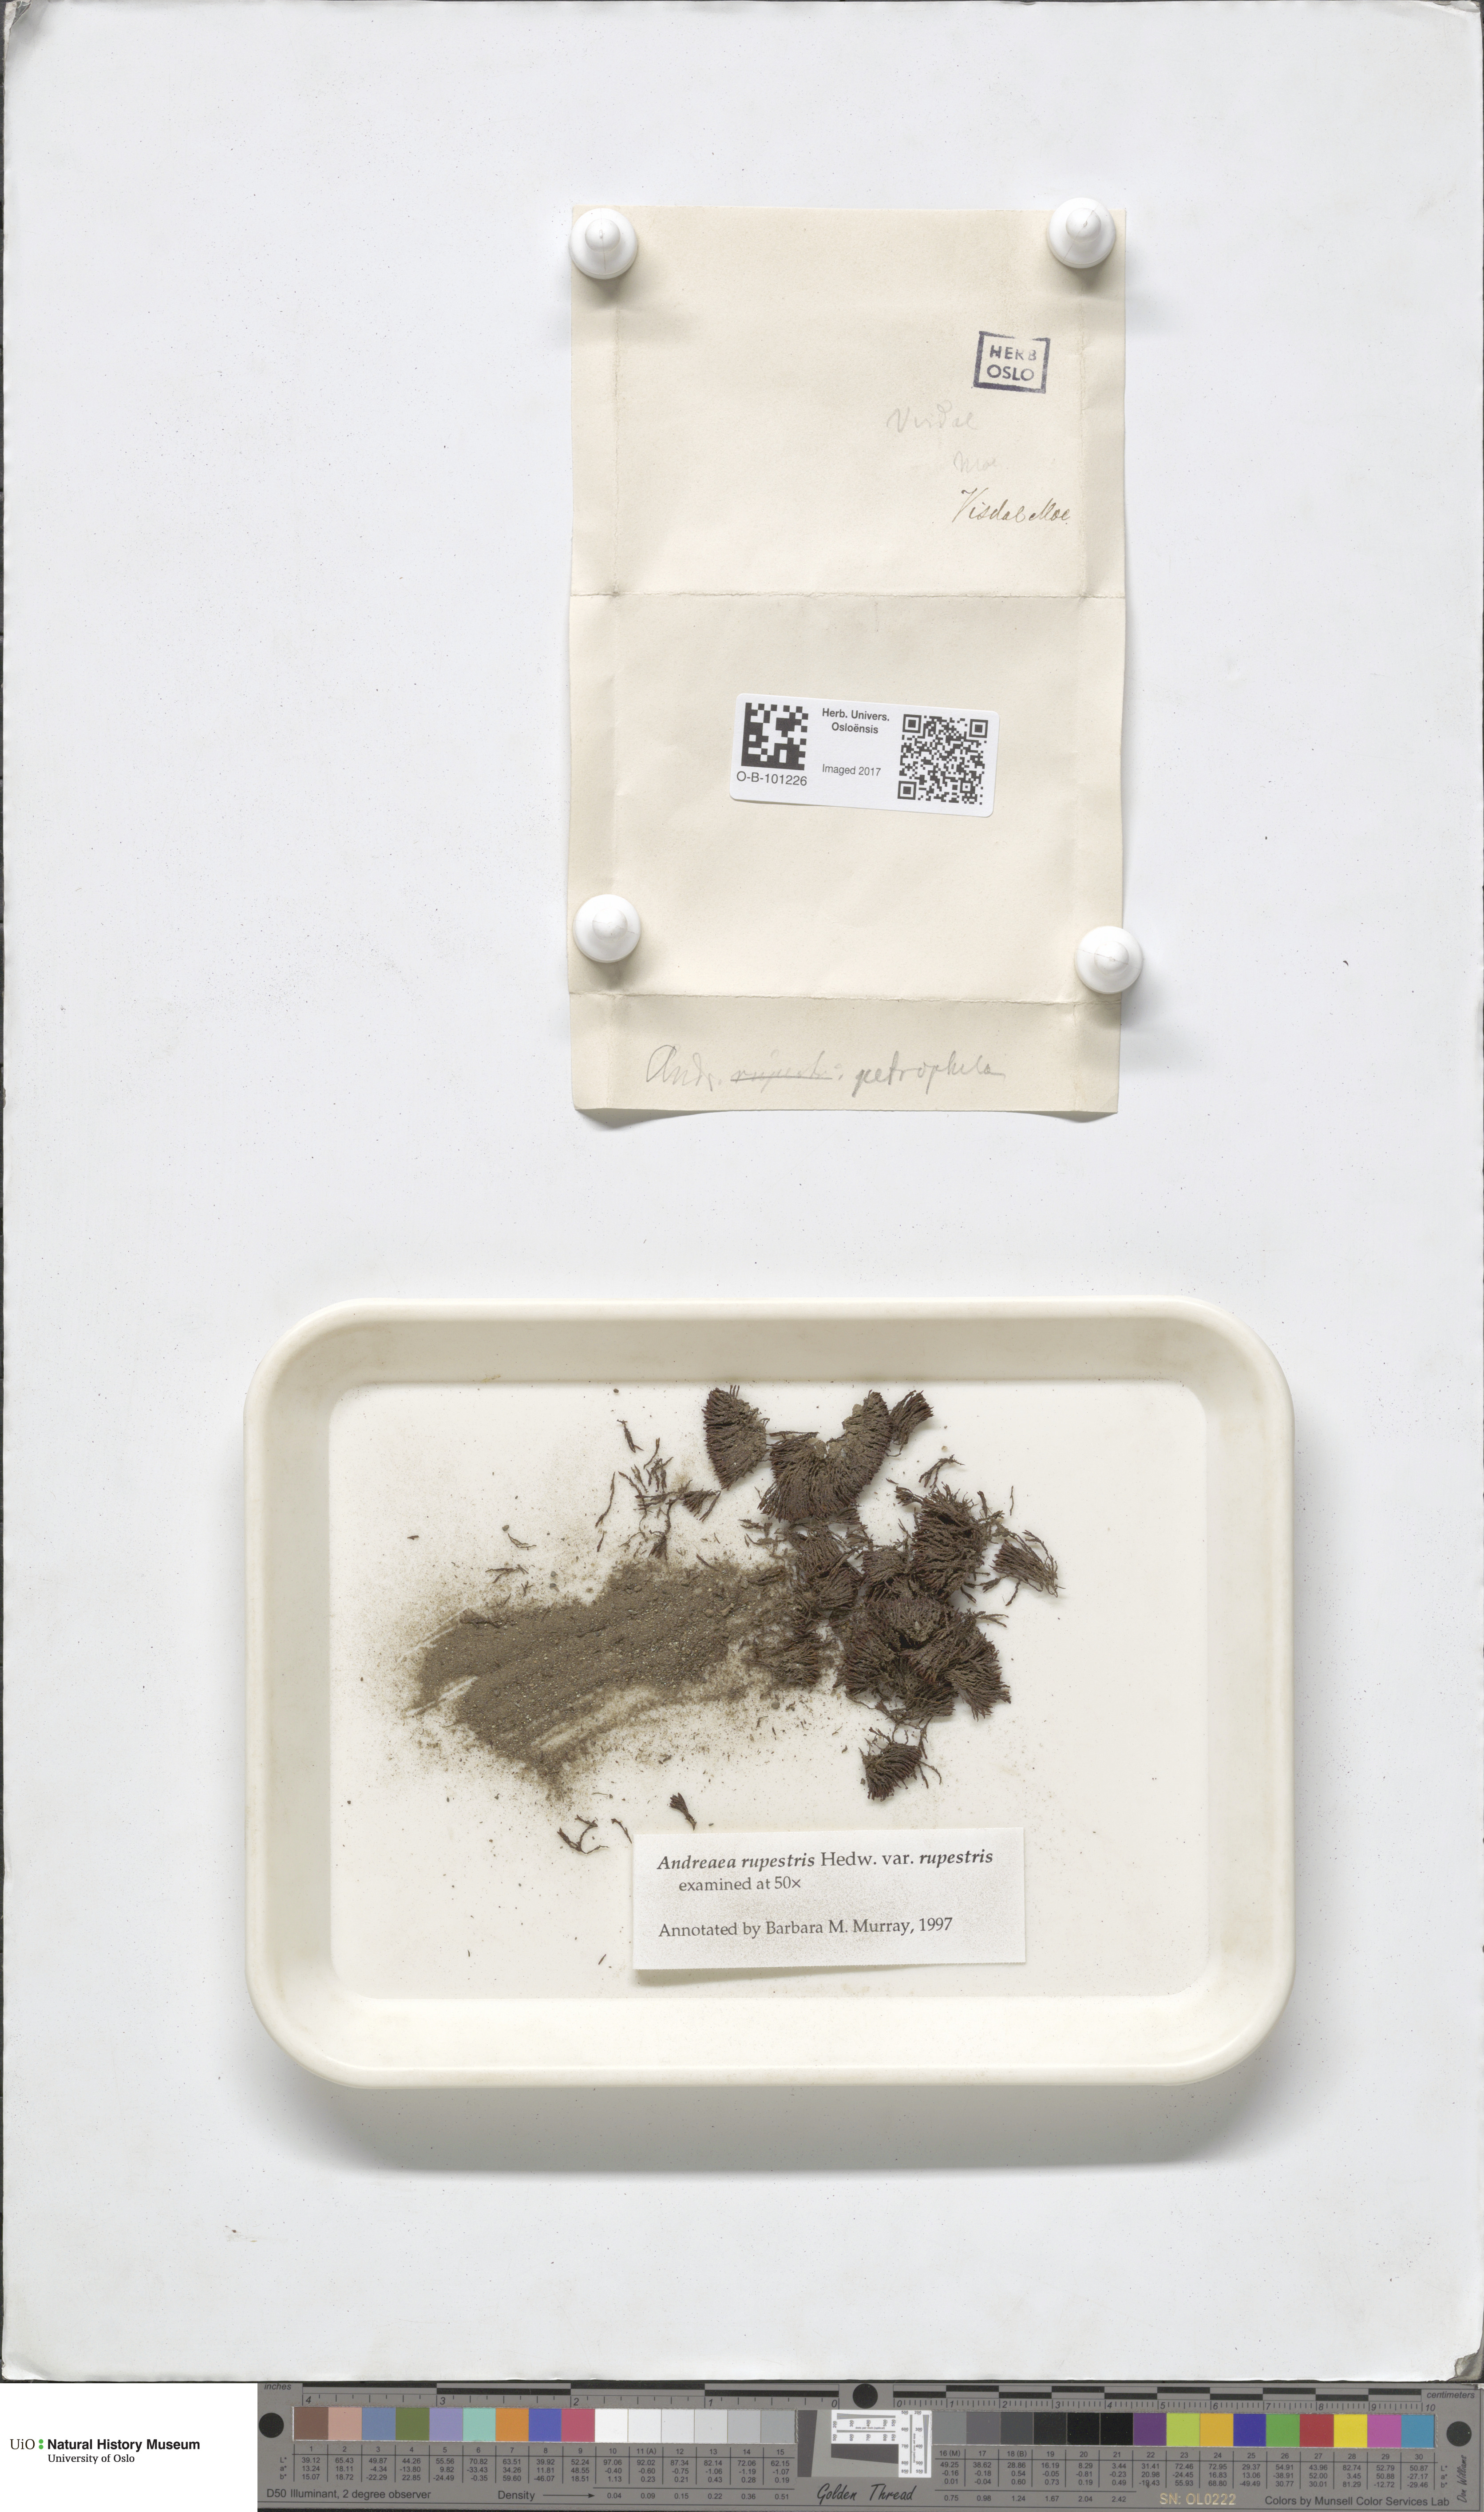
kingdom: Plantae
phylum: Bryophyta
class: Andreaeopsida
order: Andreaeales
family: Andreaeaceae
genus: Andreaea
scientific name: Andreaea rupestris
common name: Black rock moss
